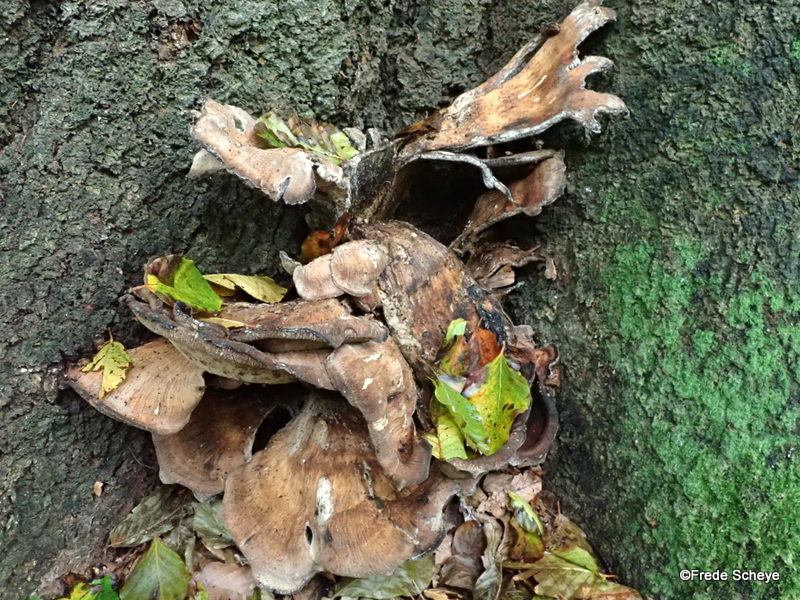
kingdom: Fungi
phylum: Basidiomycota
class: Agaricomycetes
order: Polyporales
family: Meripilaceae
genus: Meripilus
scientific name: Meripilus giganteus
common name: kæmpeporesvamp
